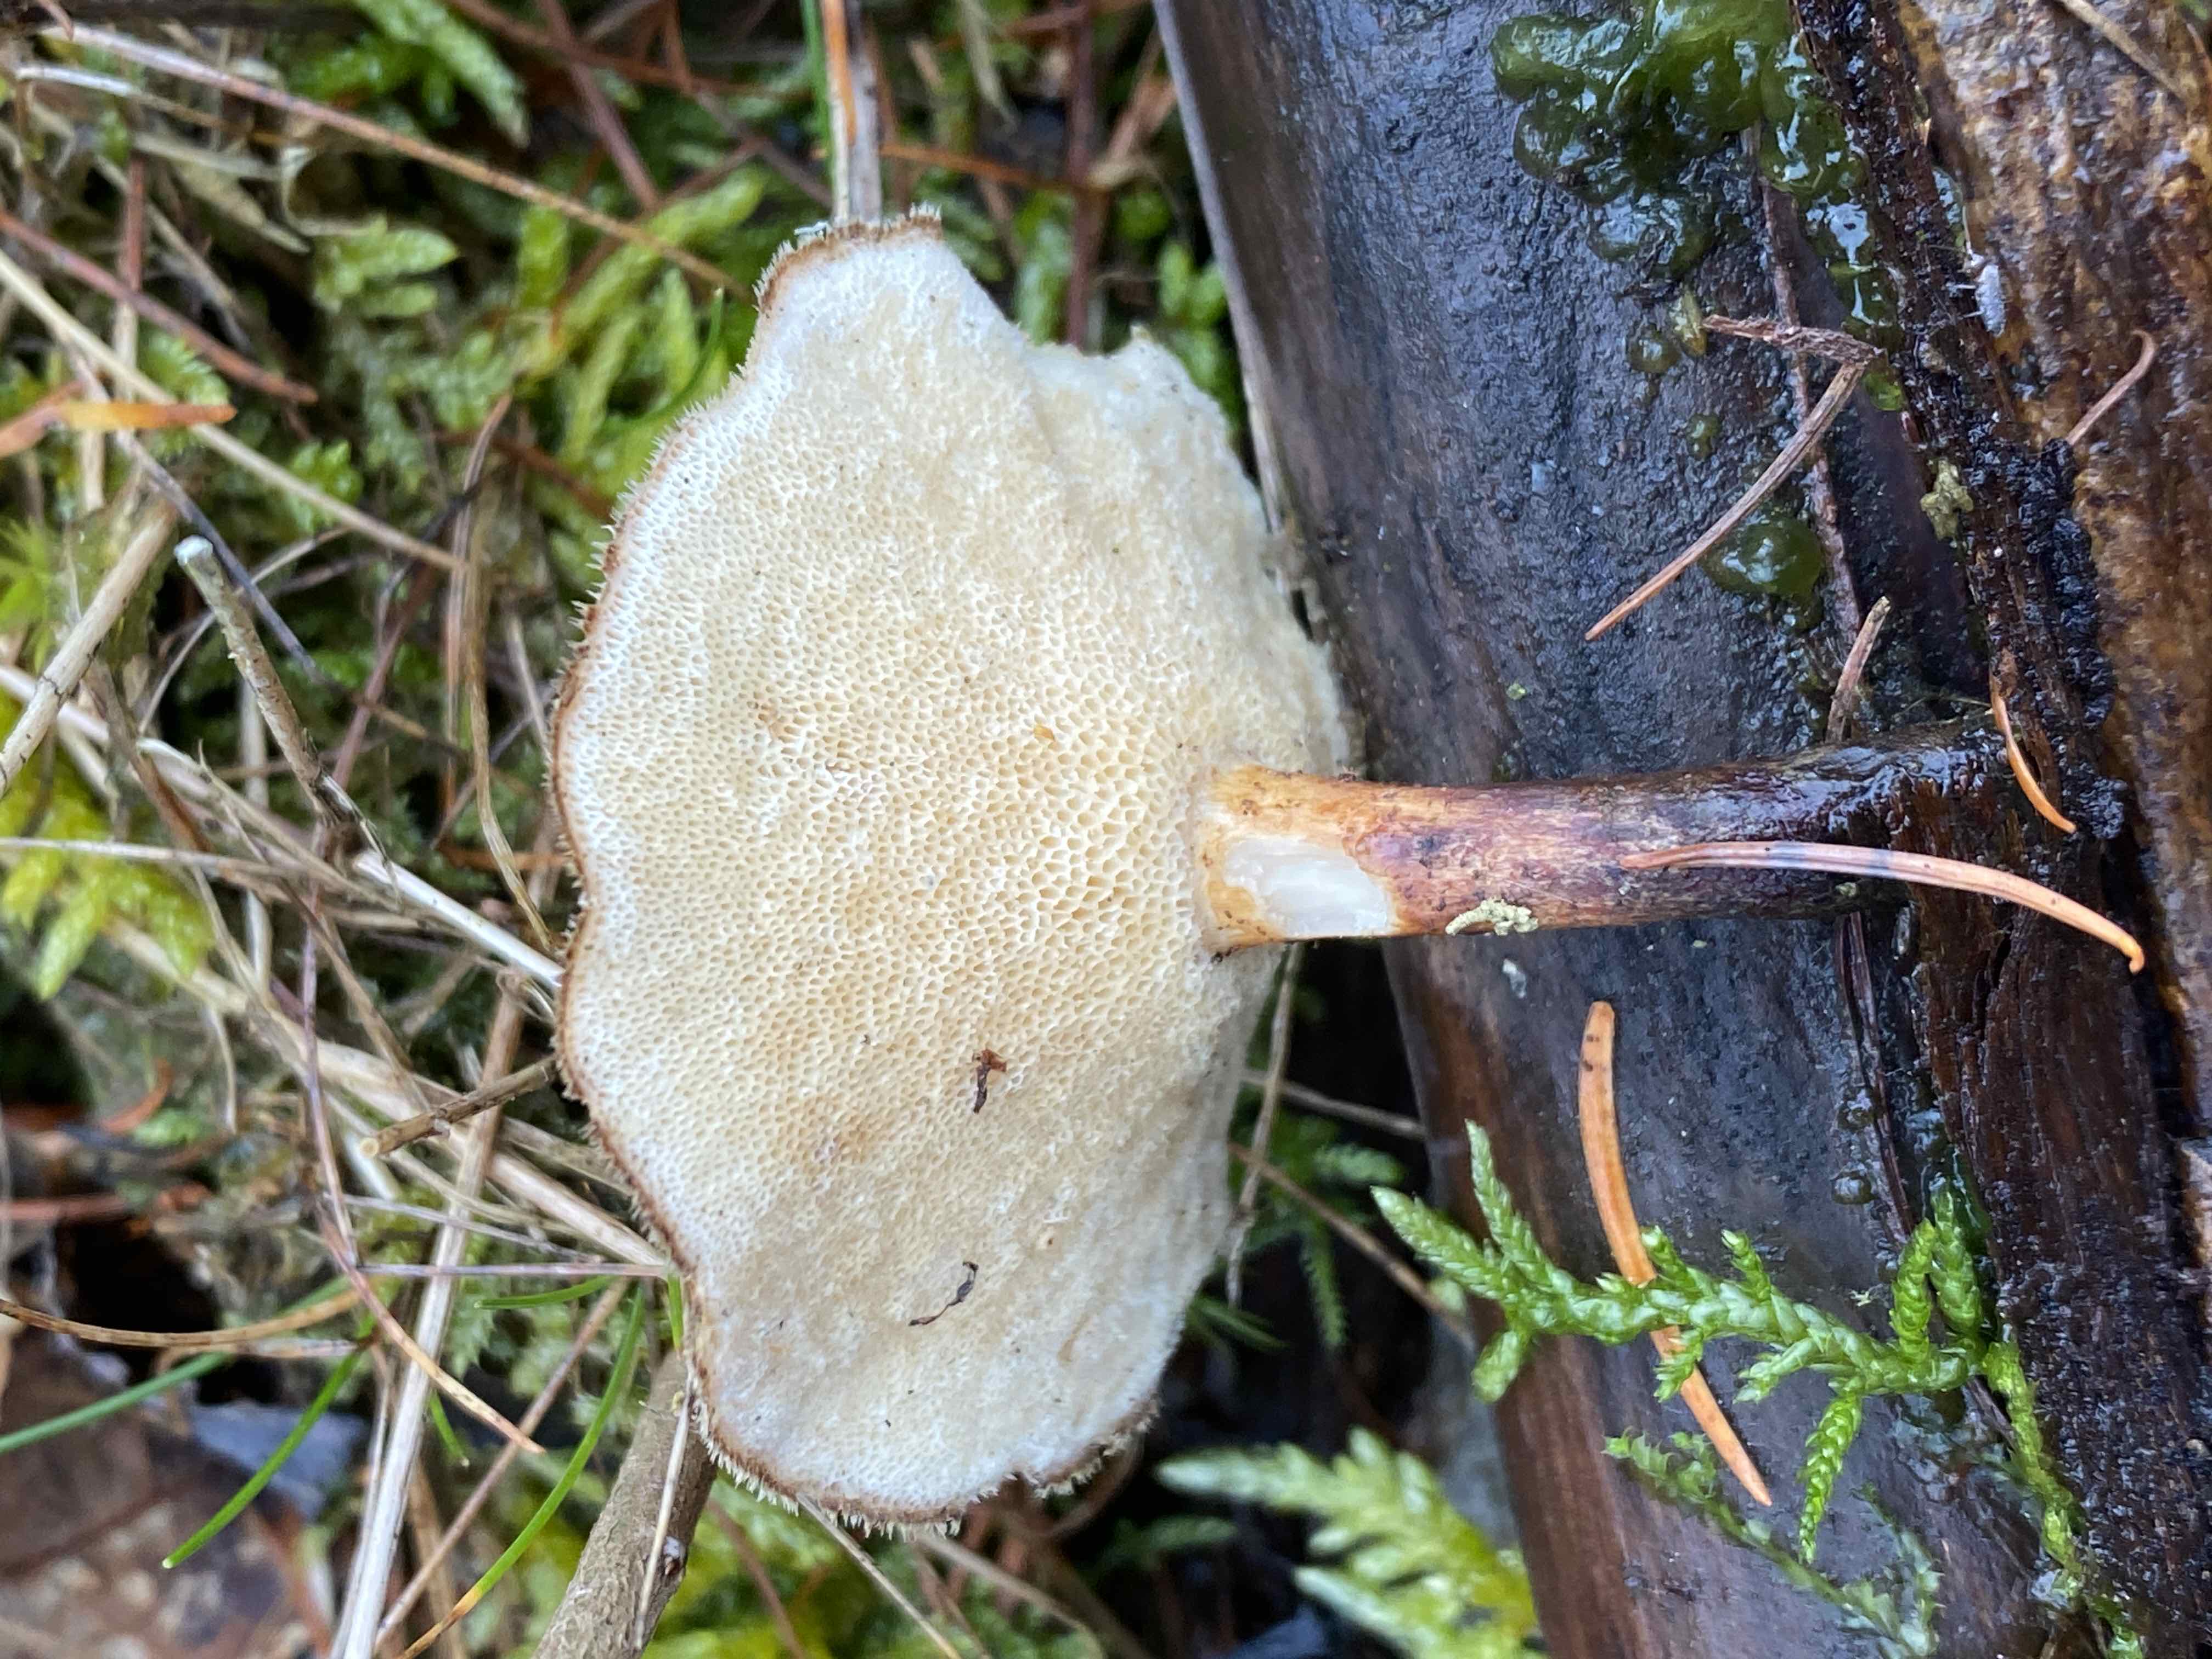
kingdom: Fungi
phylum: Basidiomycota
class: Agaricomycetes
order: Polyporales
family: Polyporaceae
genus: Lentinus
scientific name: Lentinus brumalis
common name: vinter-stilkporesvamp
